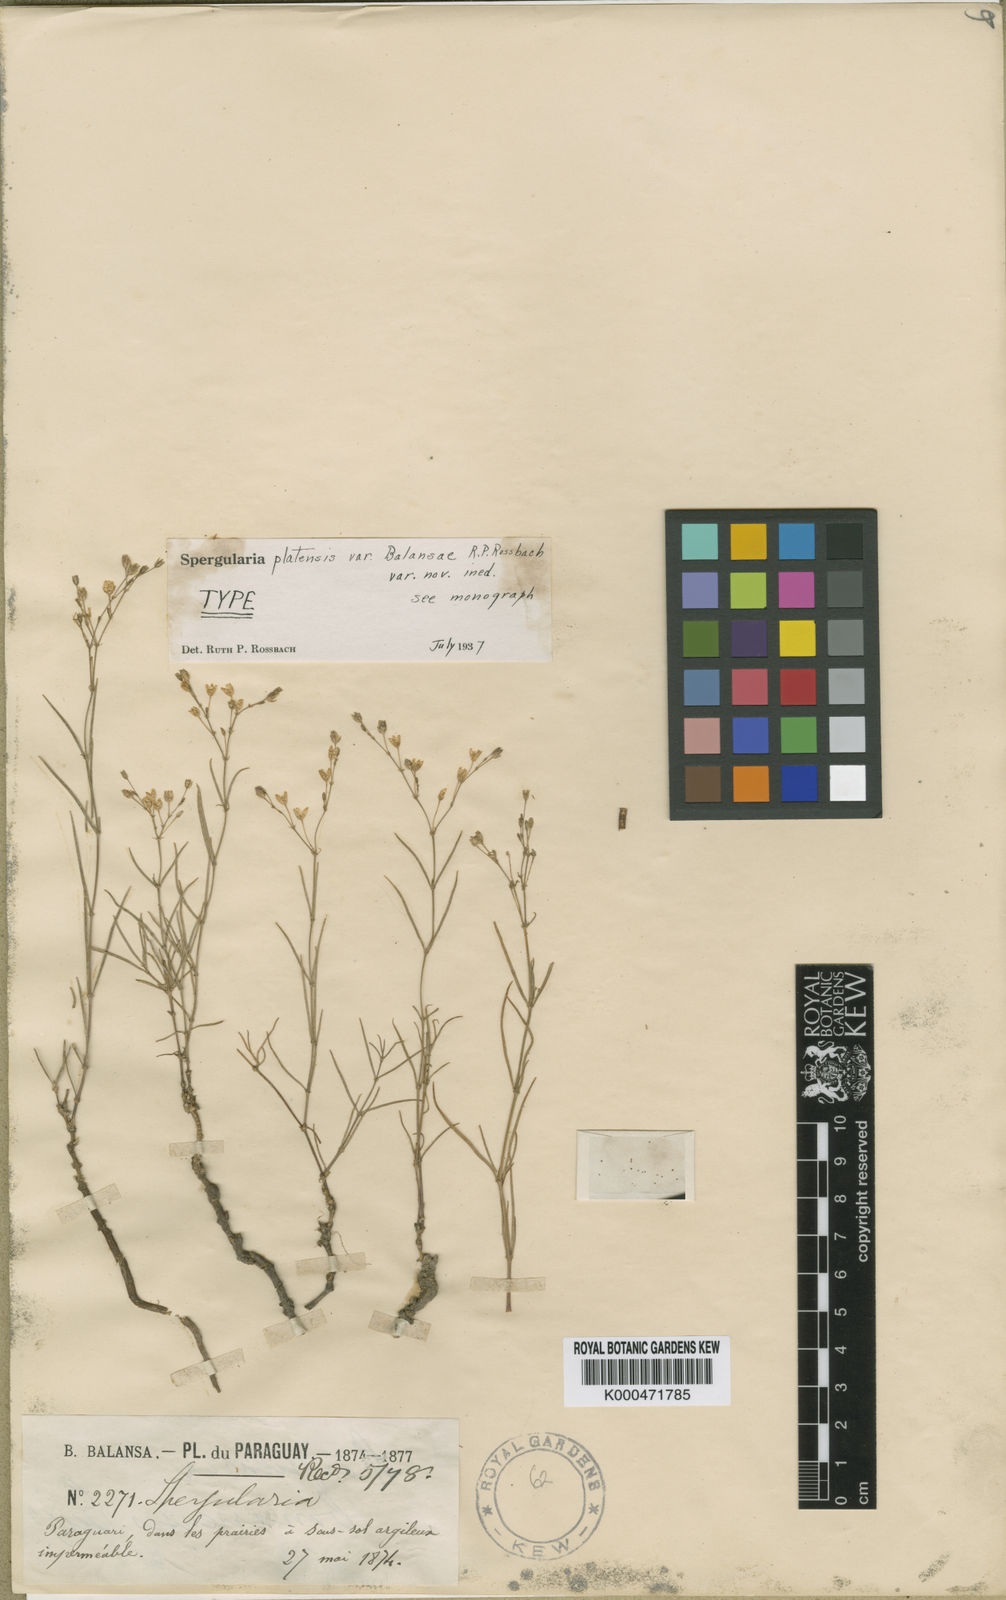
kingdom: Plantae
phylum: Tracheophyta
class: Magnoliopsida
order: Caryophyllales
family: Caryophyllaceae
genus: Spergula
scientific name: Spergula platensis
